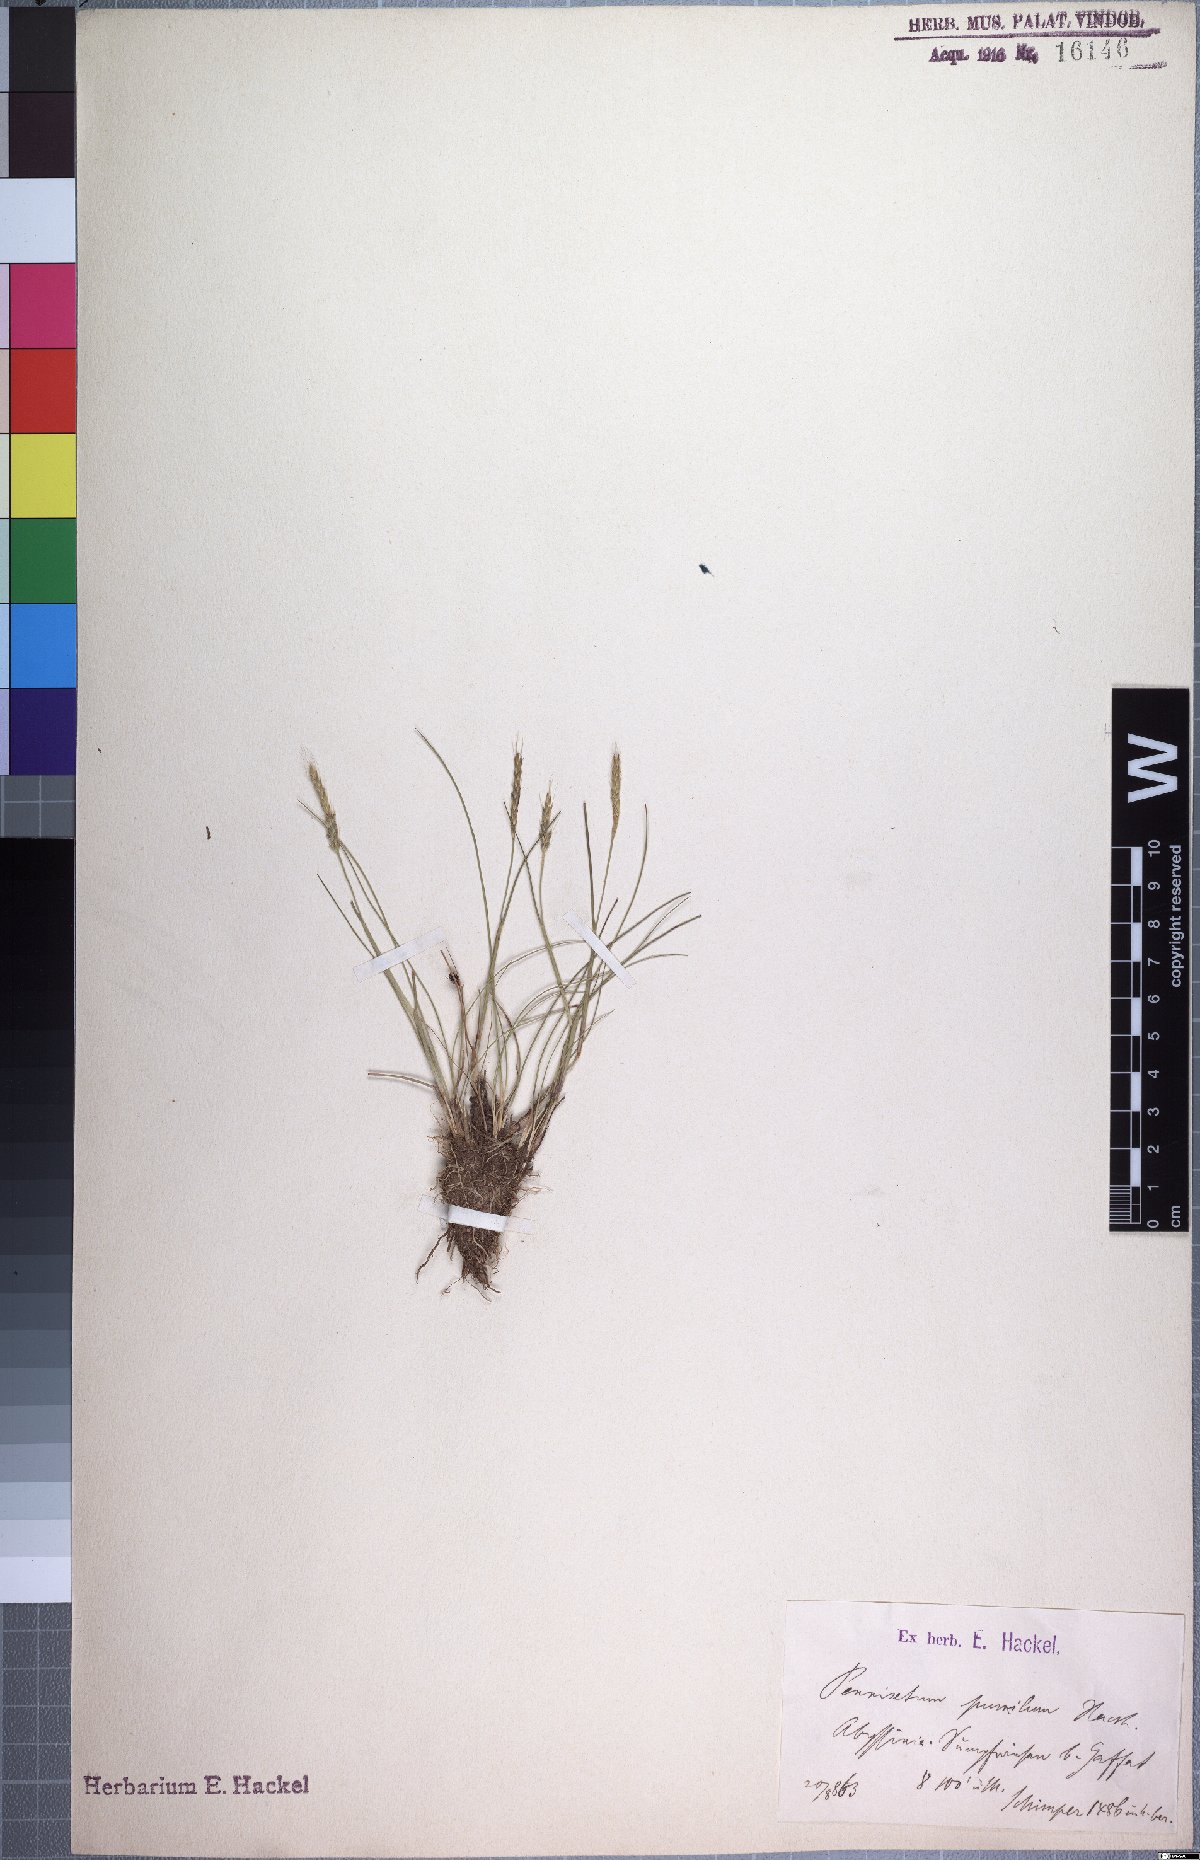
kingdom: Plantae
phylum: Tracheophyta
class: Liliopsida
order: Poales
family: Poaceae
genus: Cenchrus
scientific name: Cenchrus Pennisetum pumilum
